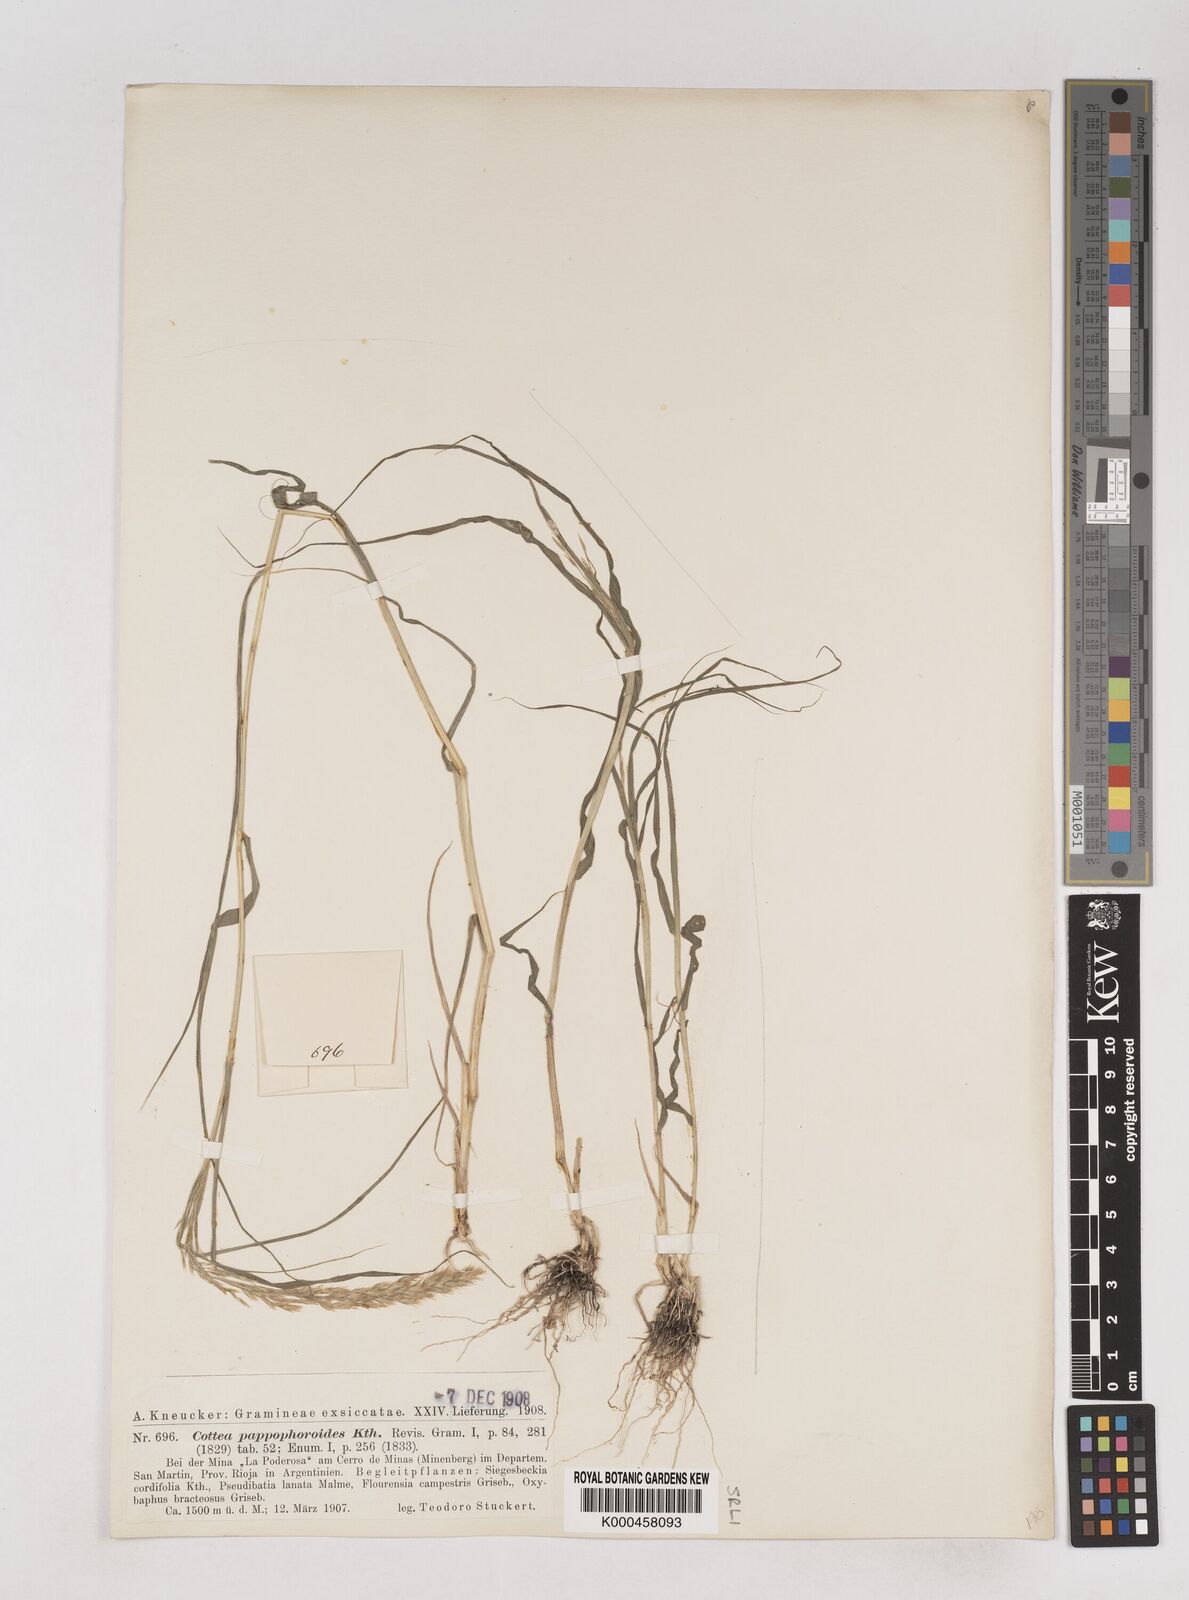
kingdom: Plantae
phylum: Tracheophyta
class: Liliopsida
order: Poales
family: Poaceae
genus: Cottea
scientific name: Cottea
